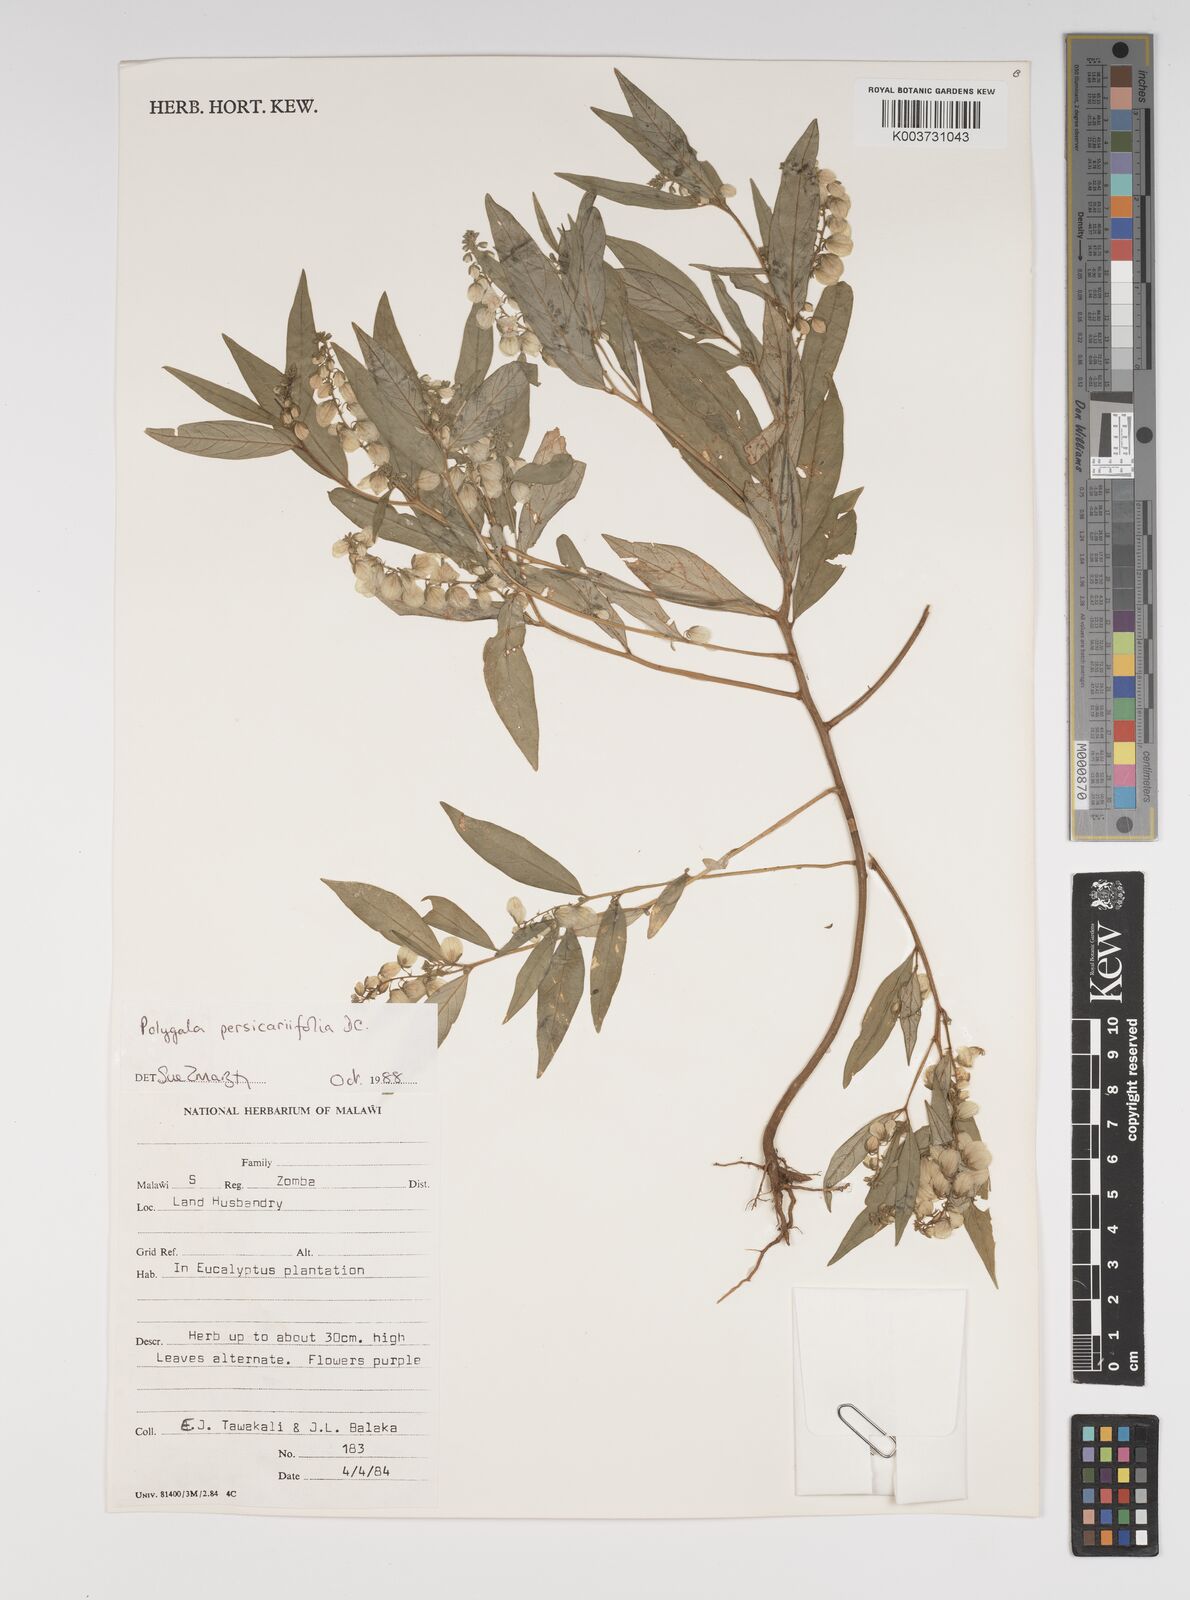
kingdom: Plantae
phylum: Tracheophyta
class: Magnoliopsida
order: Fabales
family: Polygalaceae
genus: Polygala
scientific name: Polygala persicariifolia
